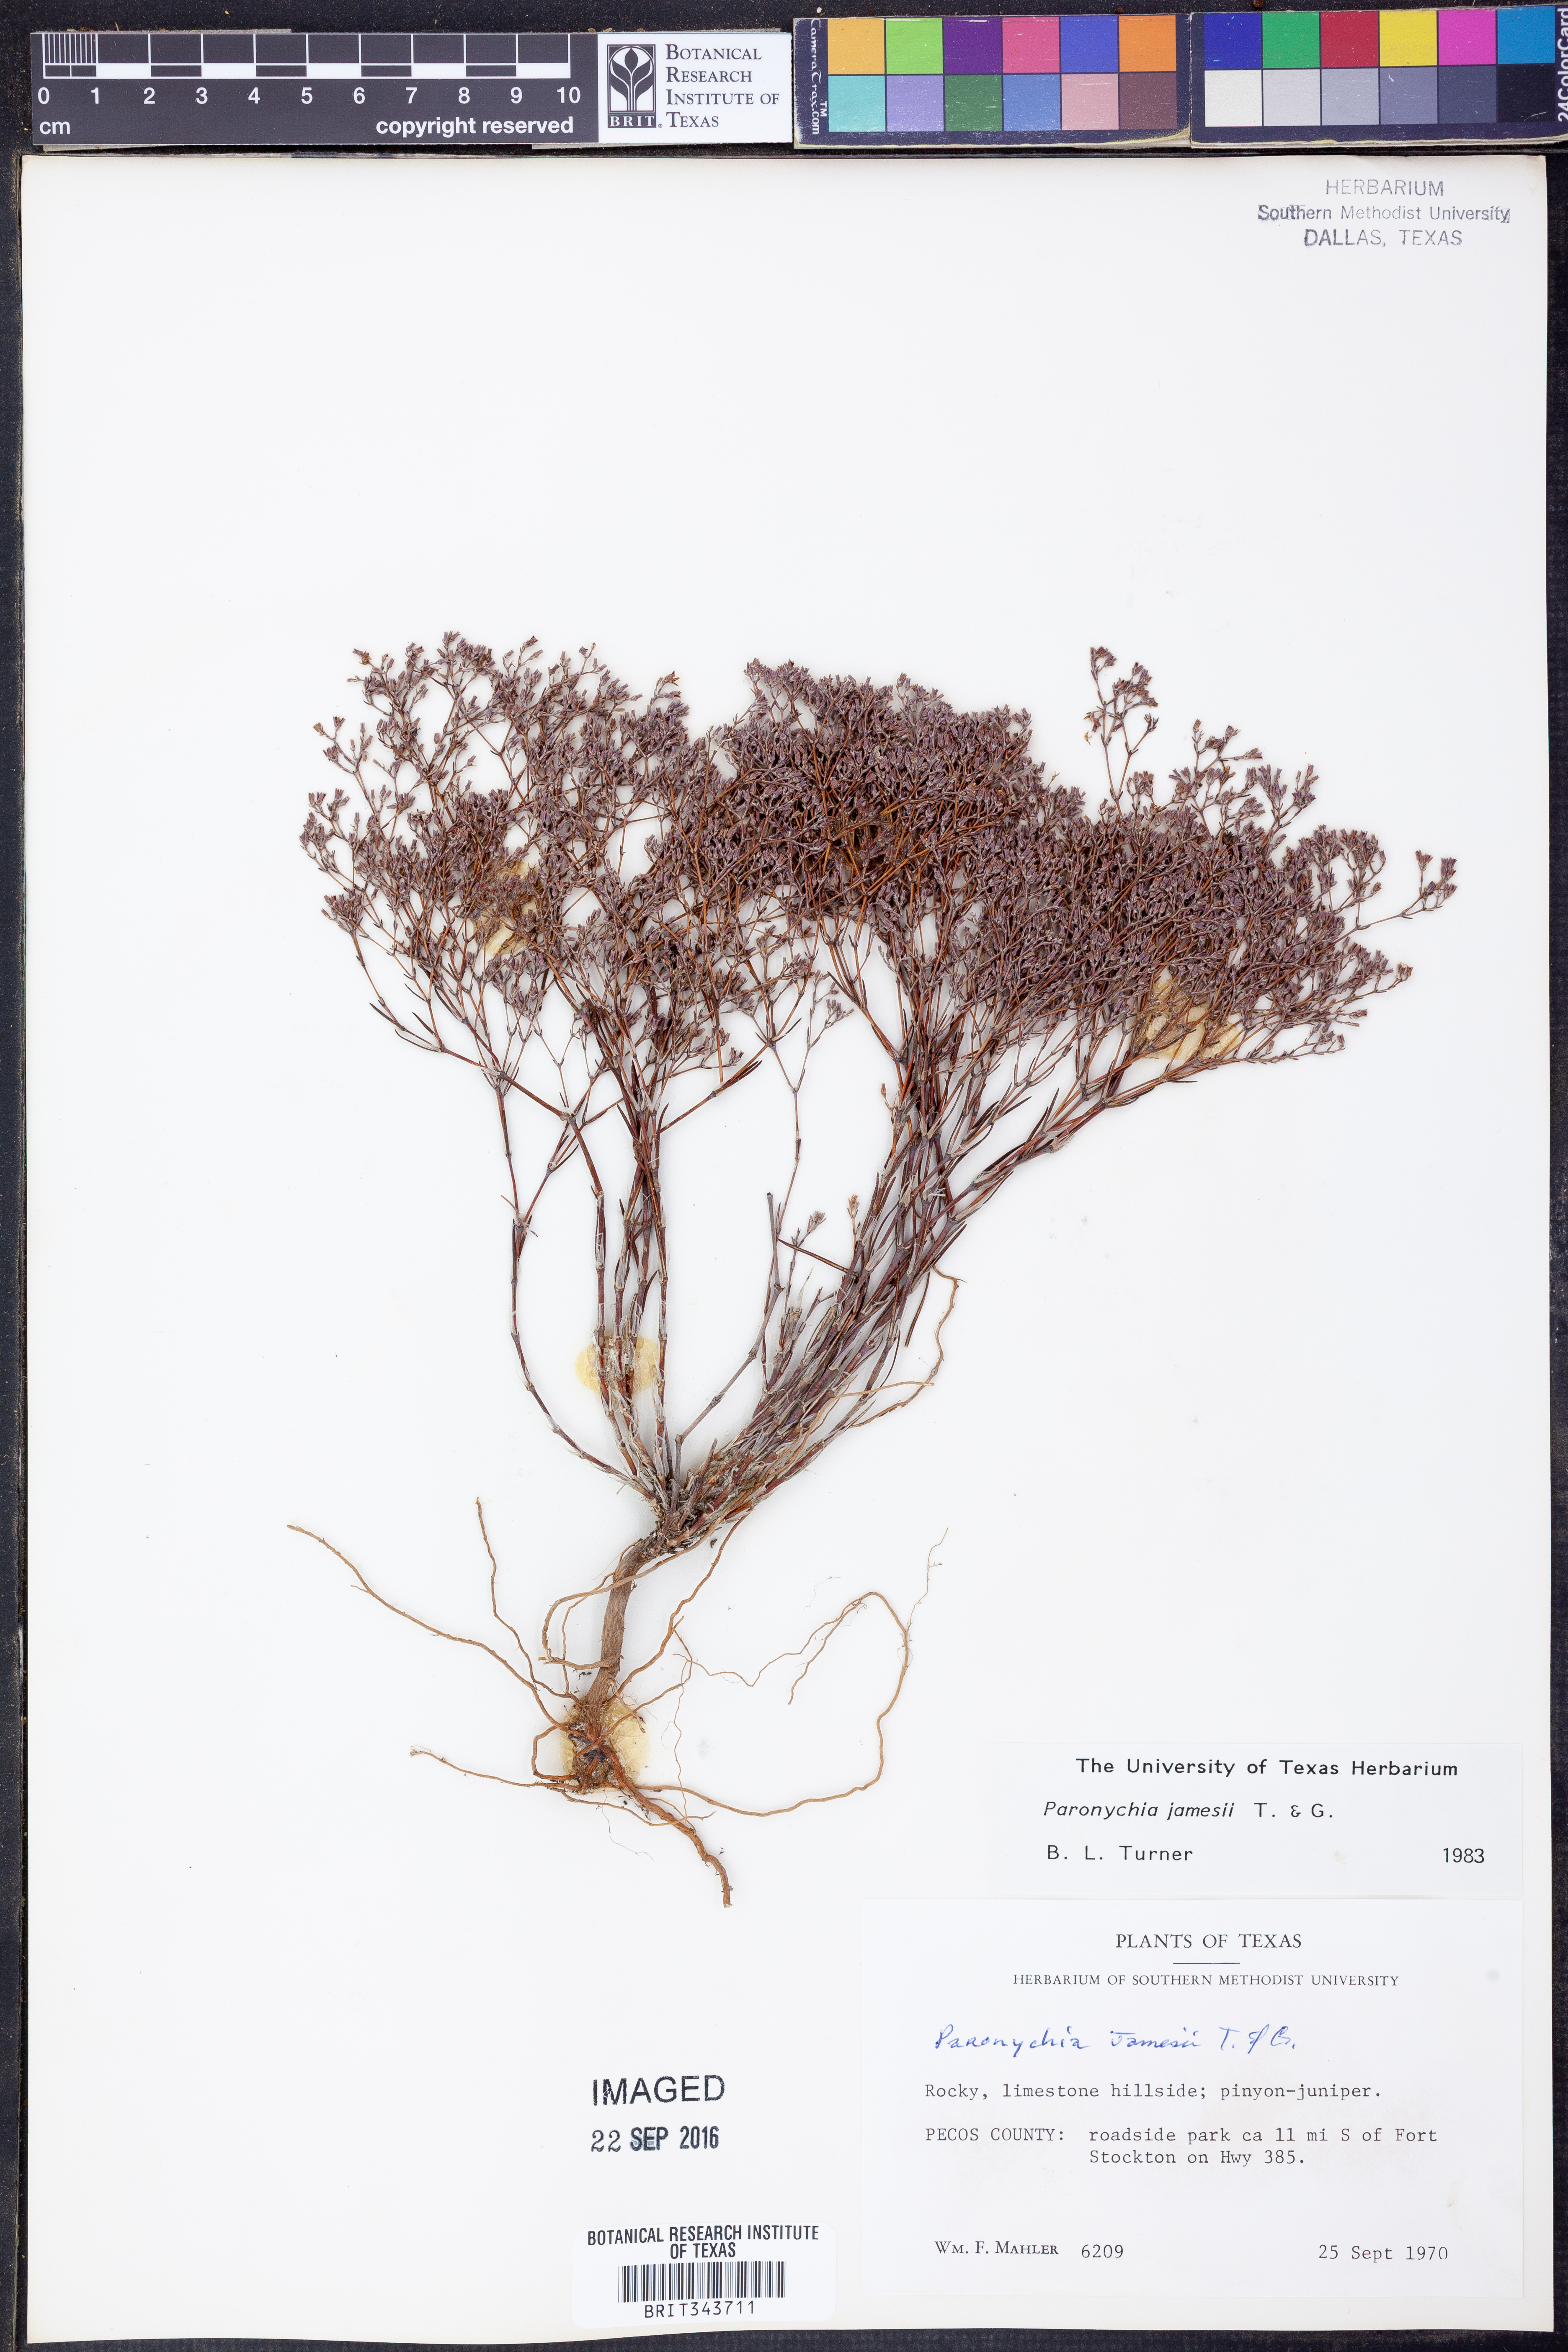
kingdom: Plantae
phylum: Tracheophyta
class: Magnoliopsida
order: Caryophyllales
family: Caryophyllaceae
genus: Paronychia
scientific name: Paronychia jamesii
